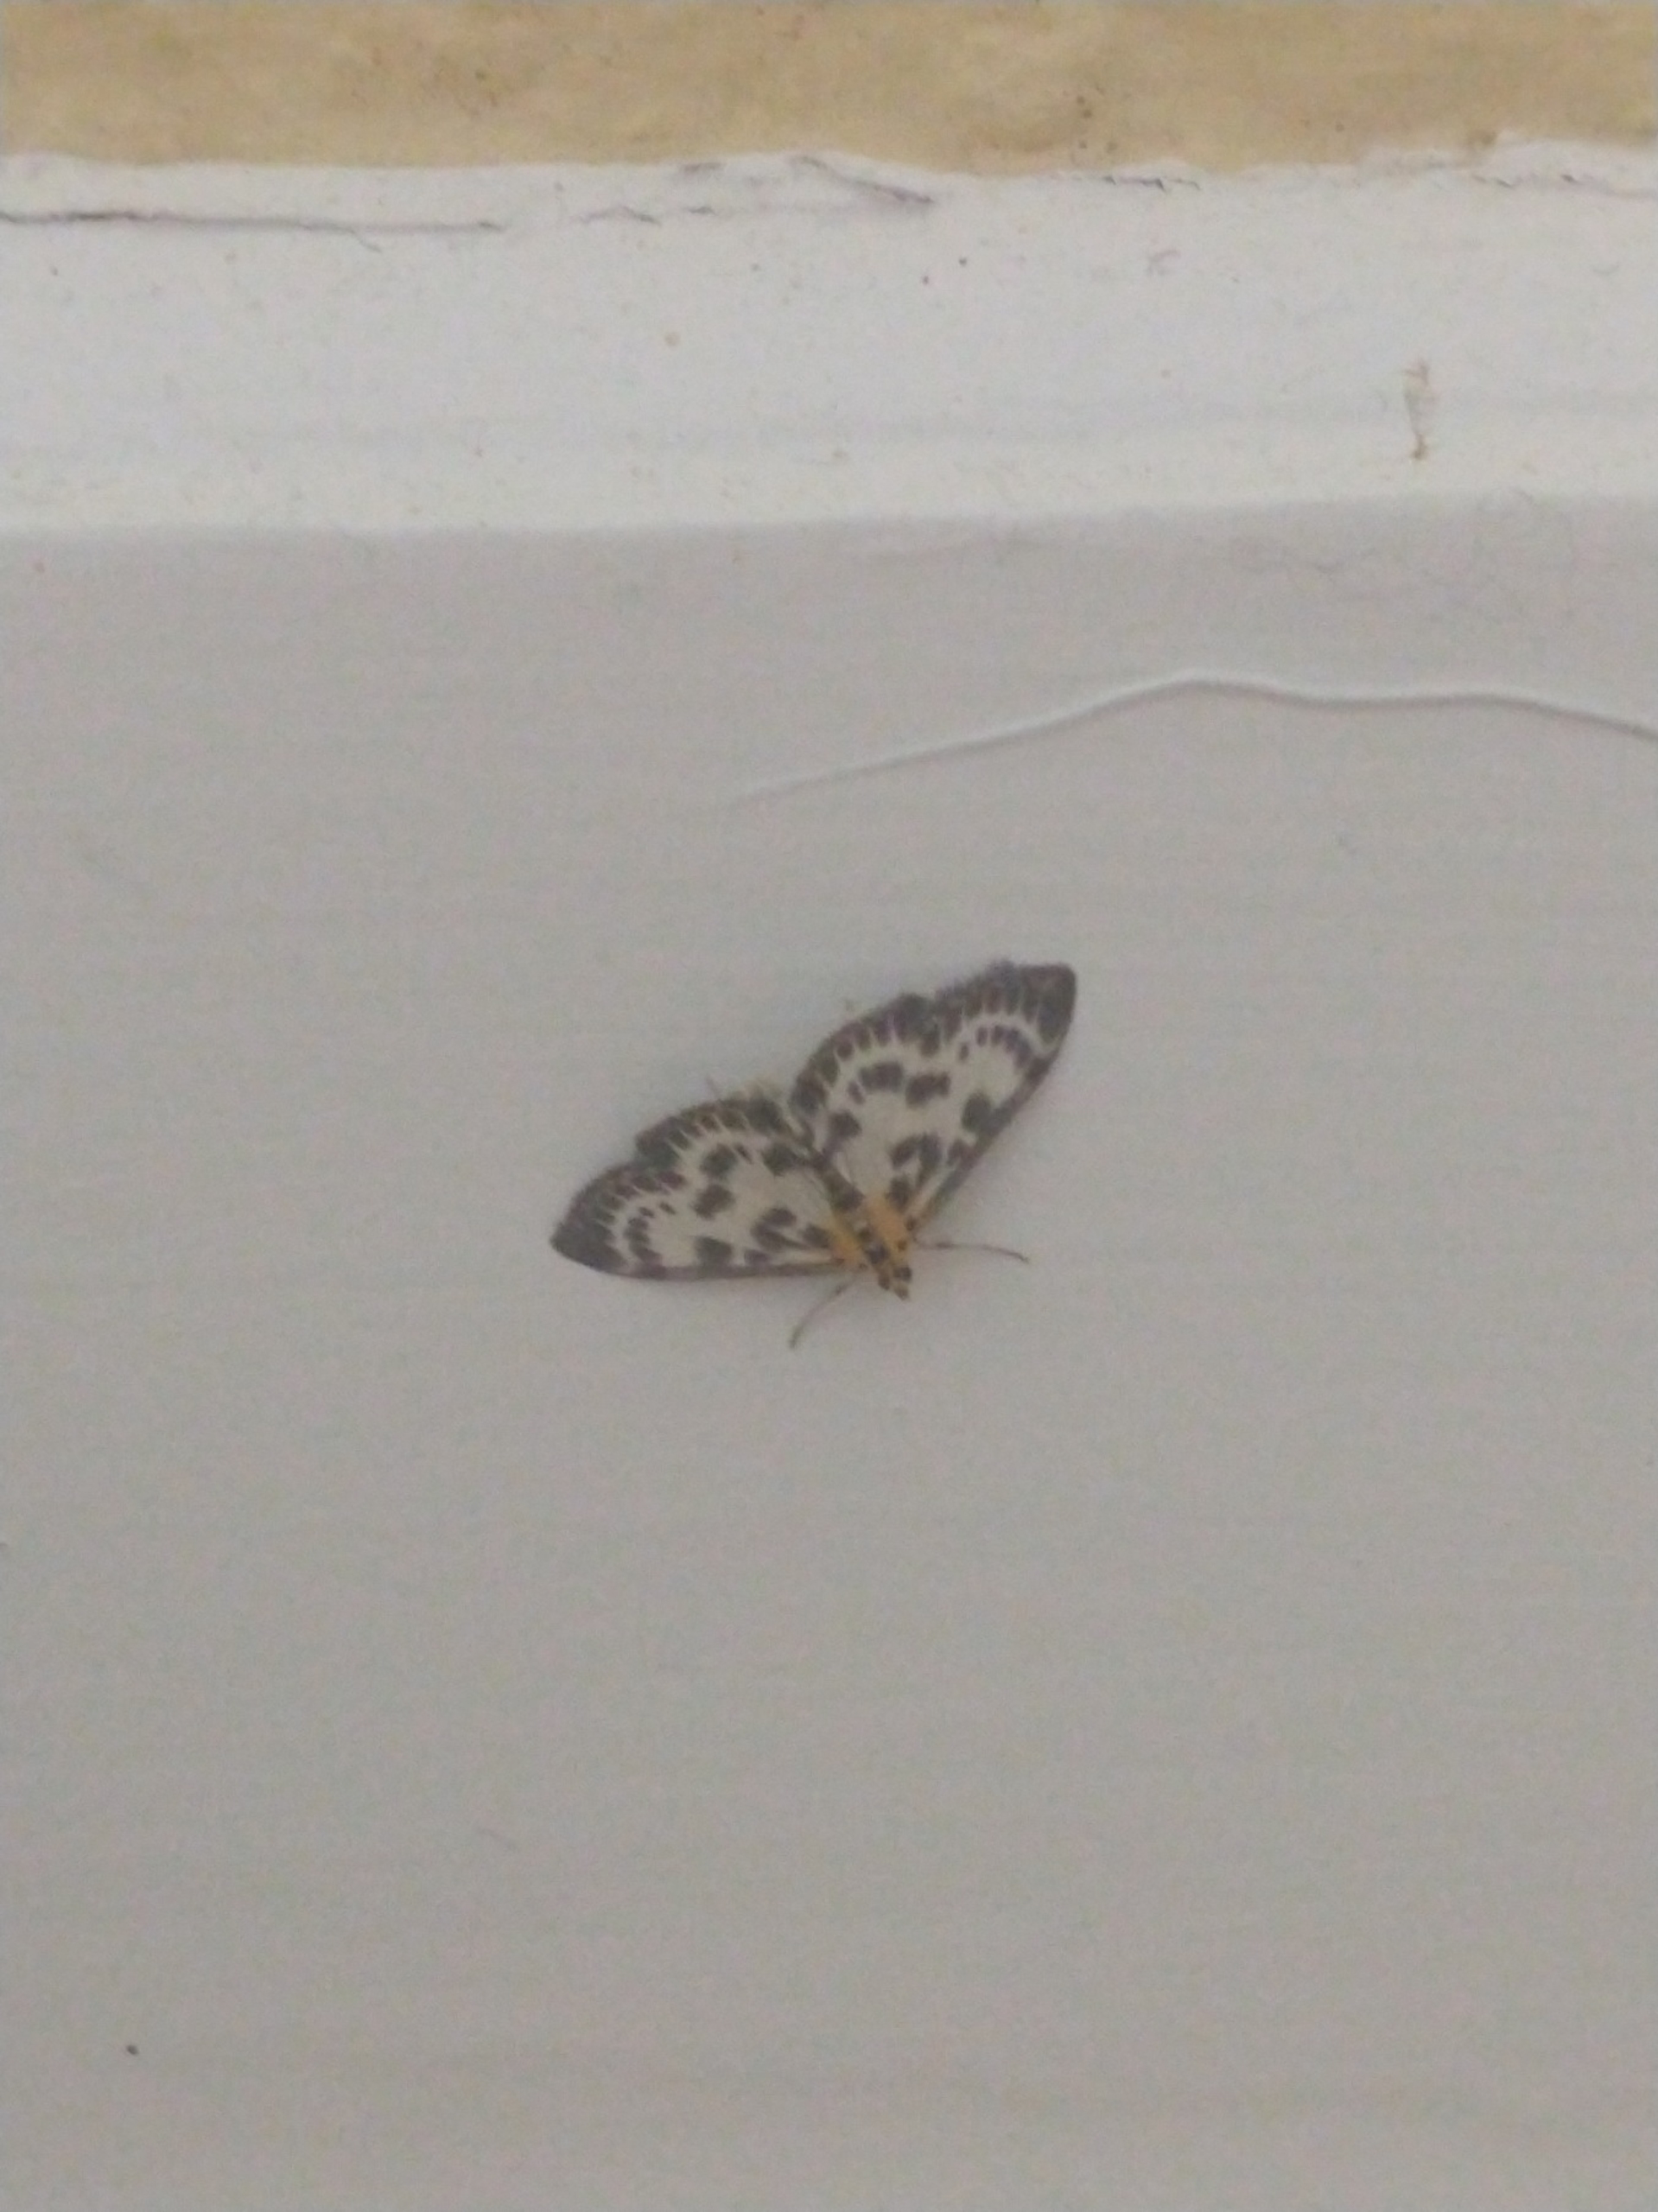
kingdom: Animalia
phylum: Arthropoda
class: Insecta
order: Lepidoptera
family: Crambidae
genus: Anania
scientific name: Anania hortulata
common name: Nældehalvmøl
